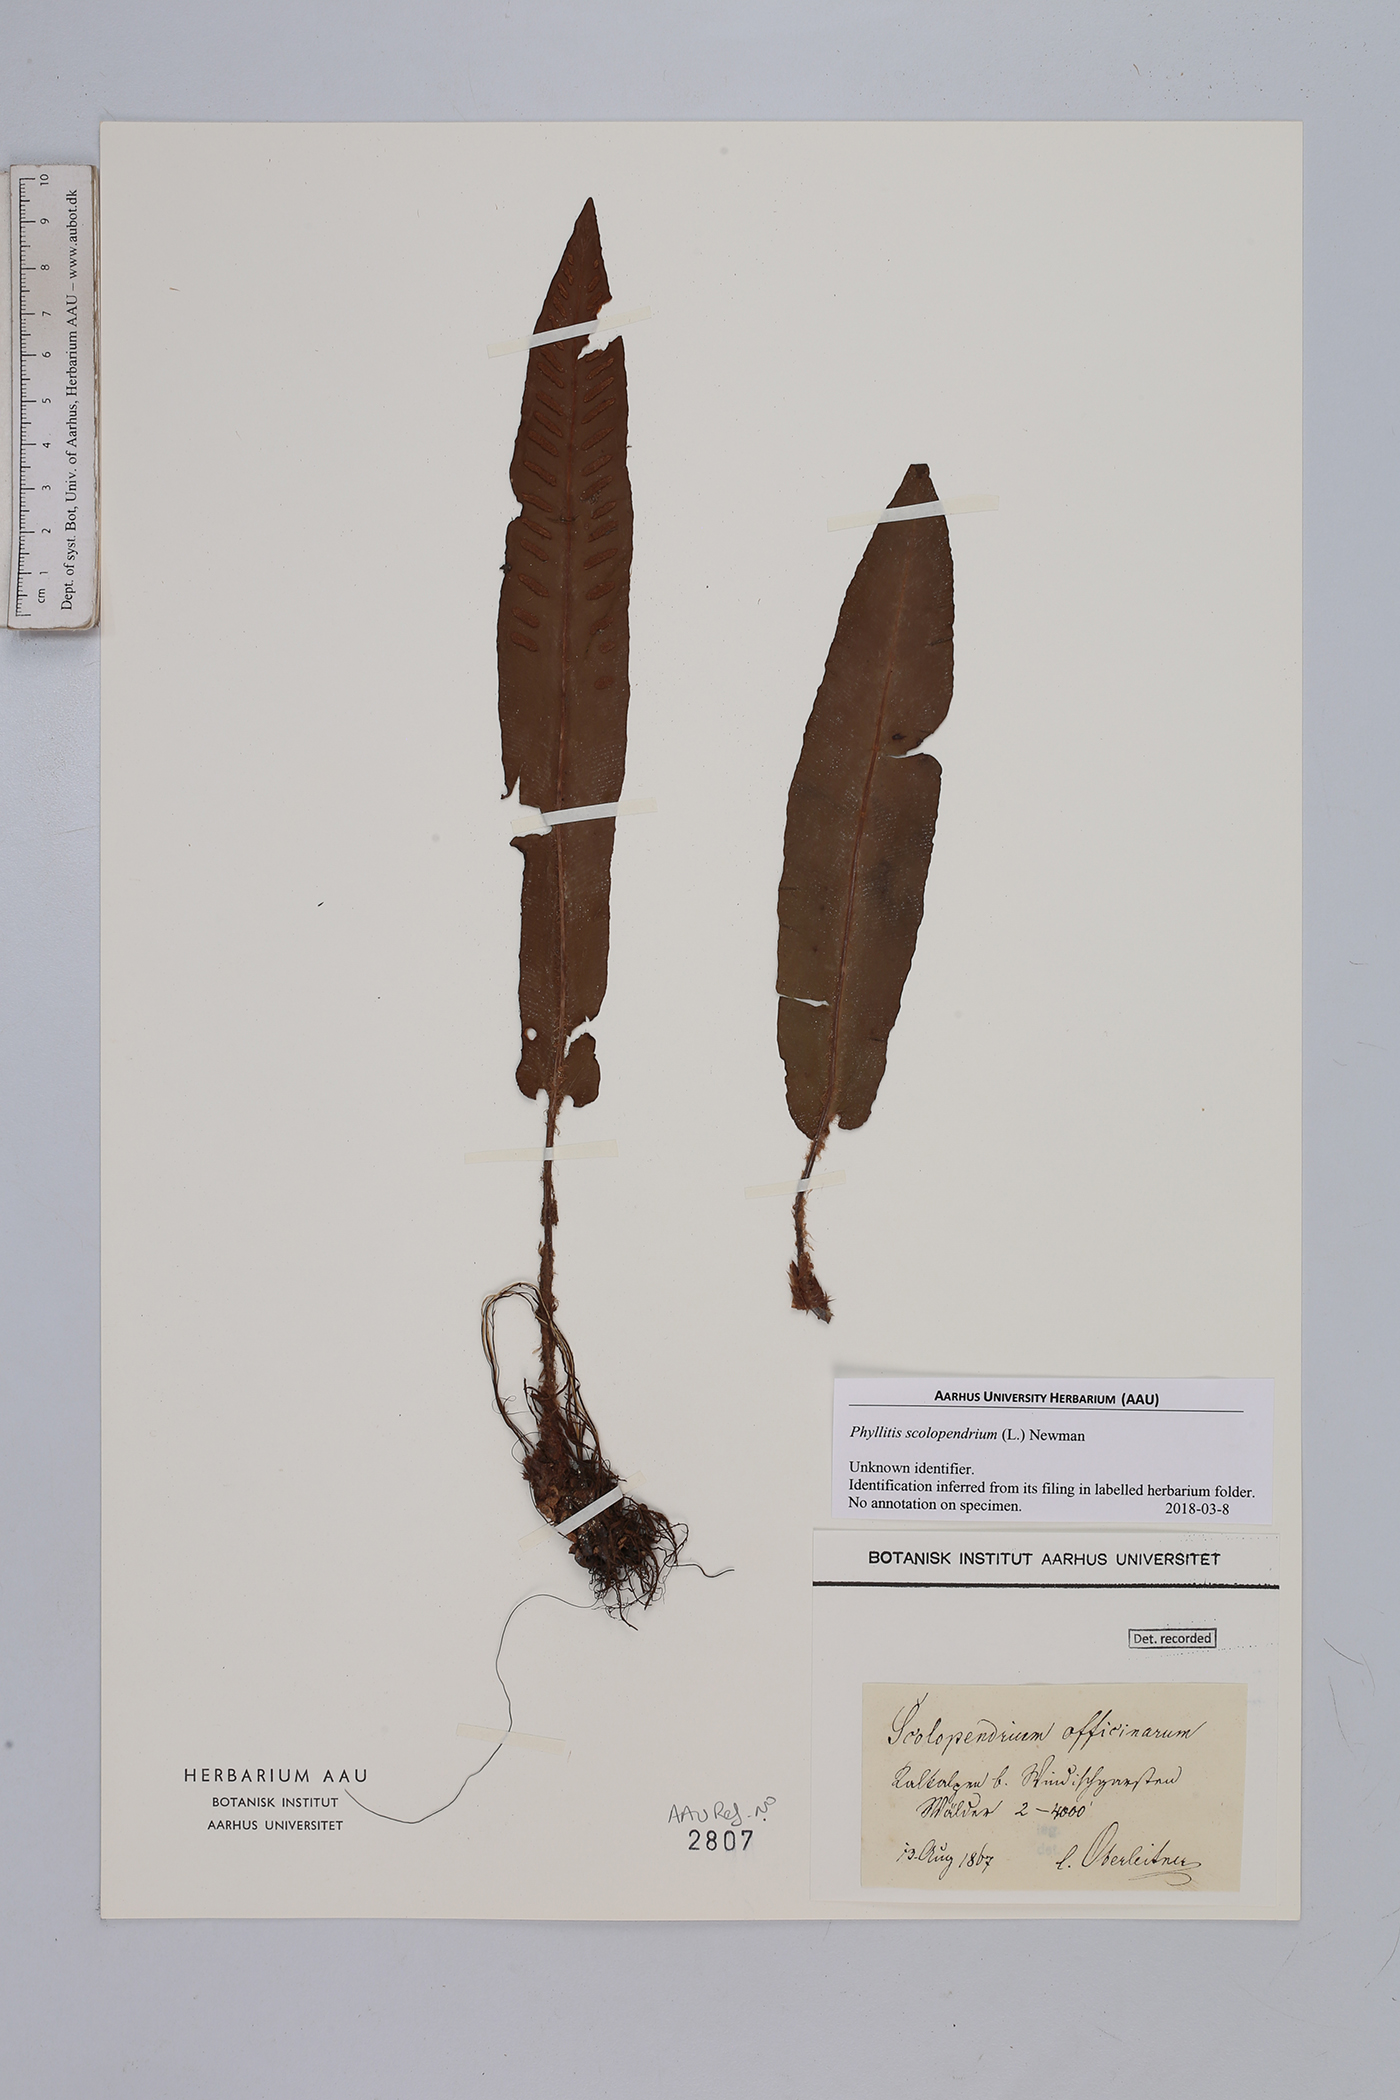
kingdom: Plantae
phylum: Tracheophyta
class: Polypodiopsida
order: Polypodiales
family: Aspleniaceae
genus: Asplenium
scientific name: Asplenium scolopendrium
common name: Hart's-tongue fern
